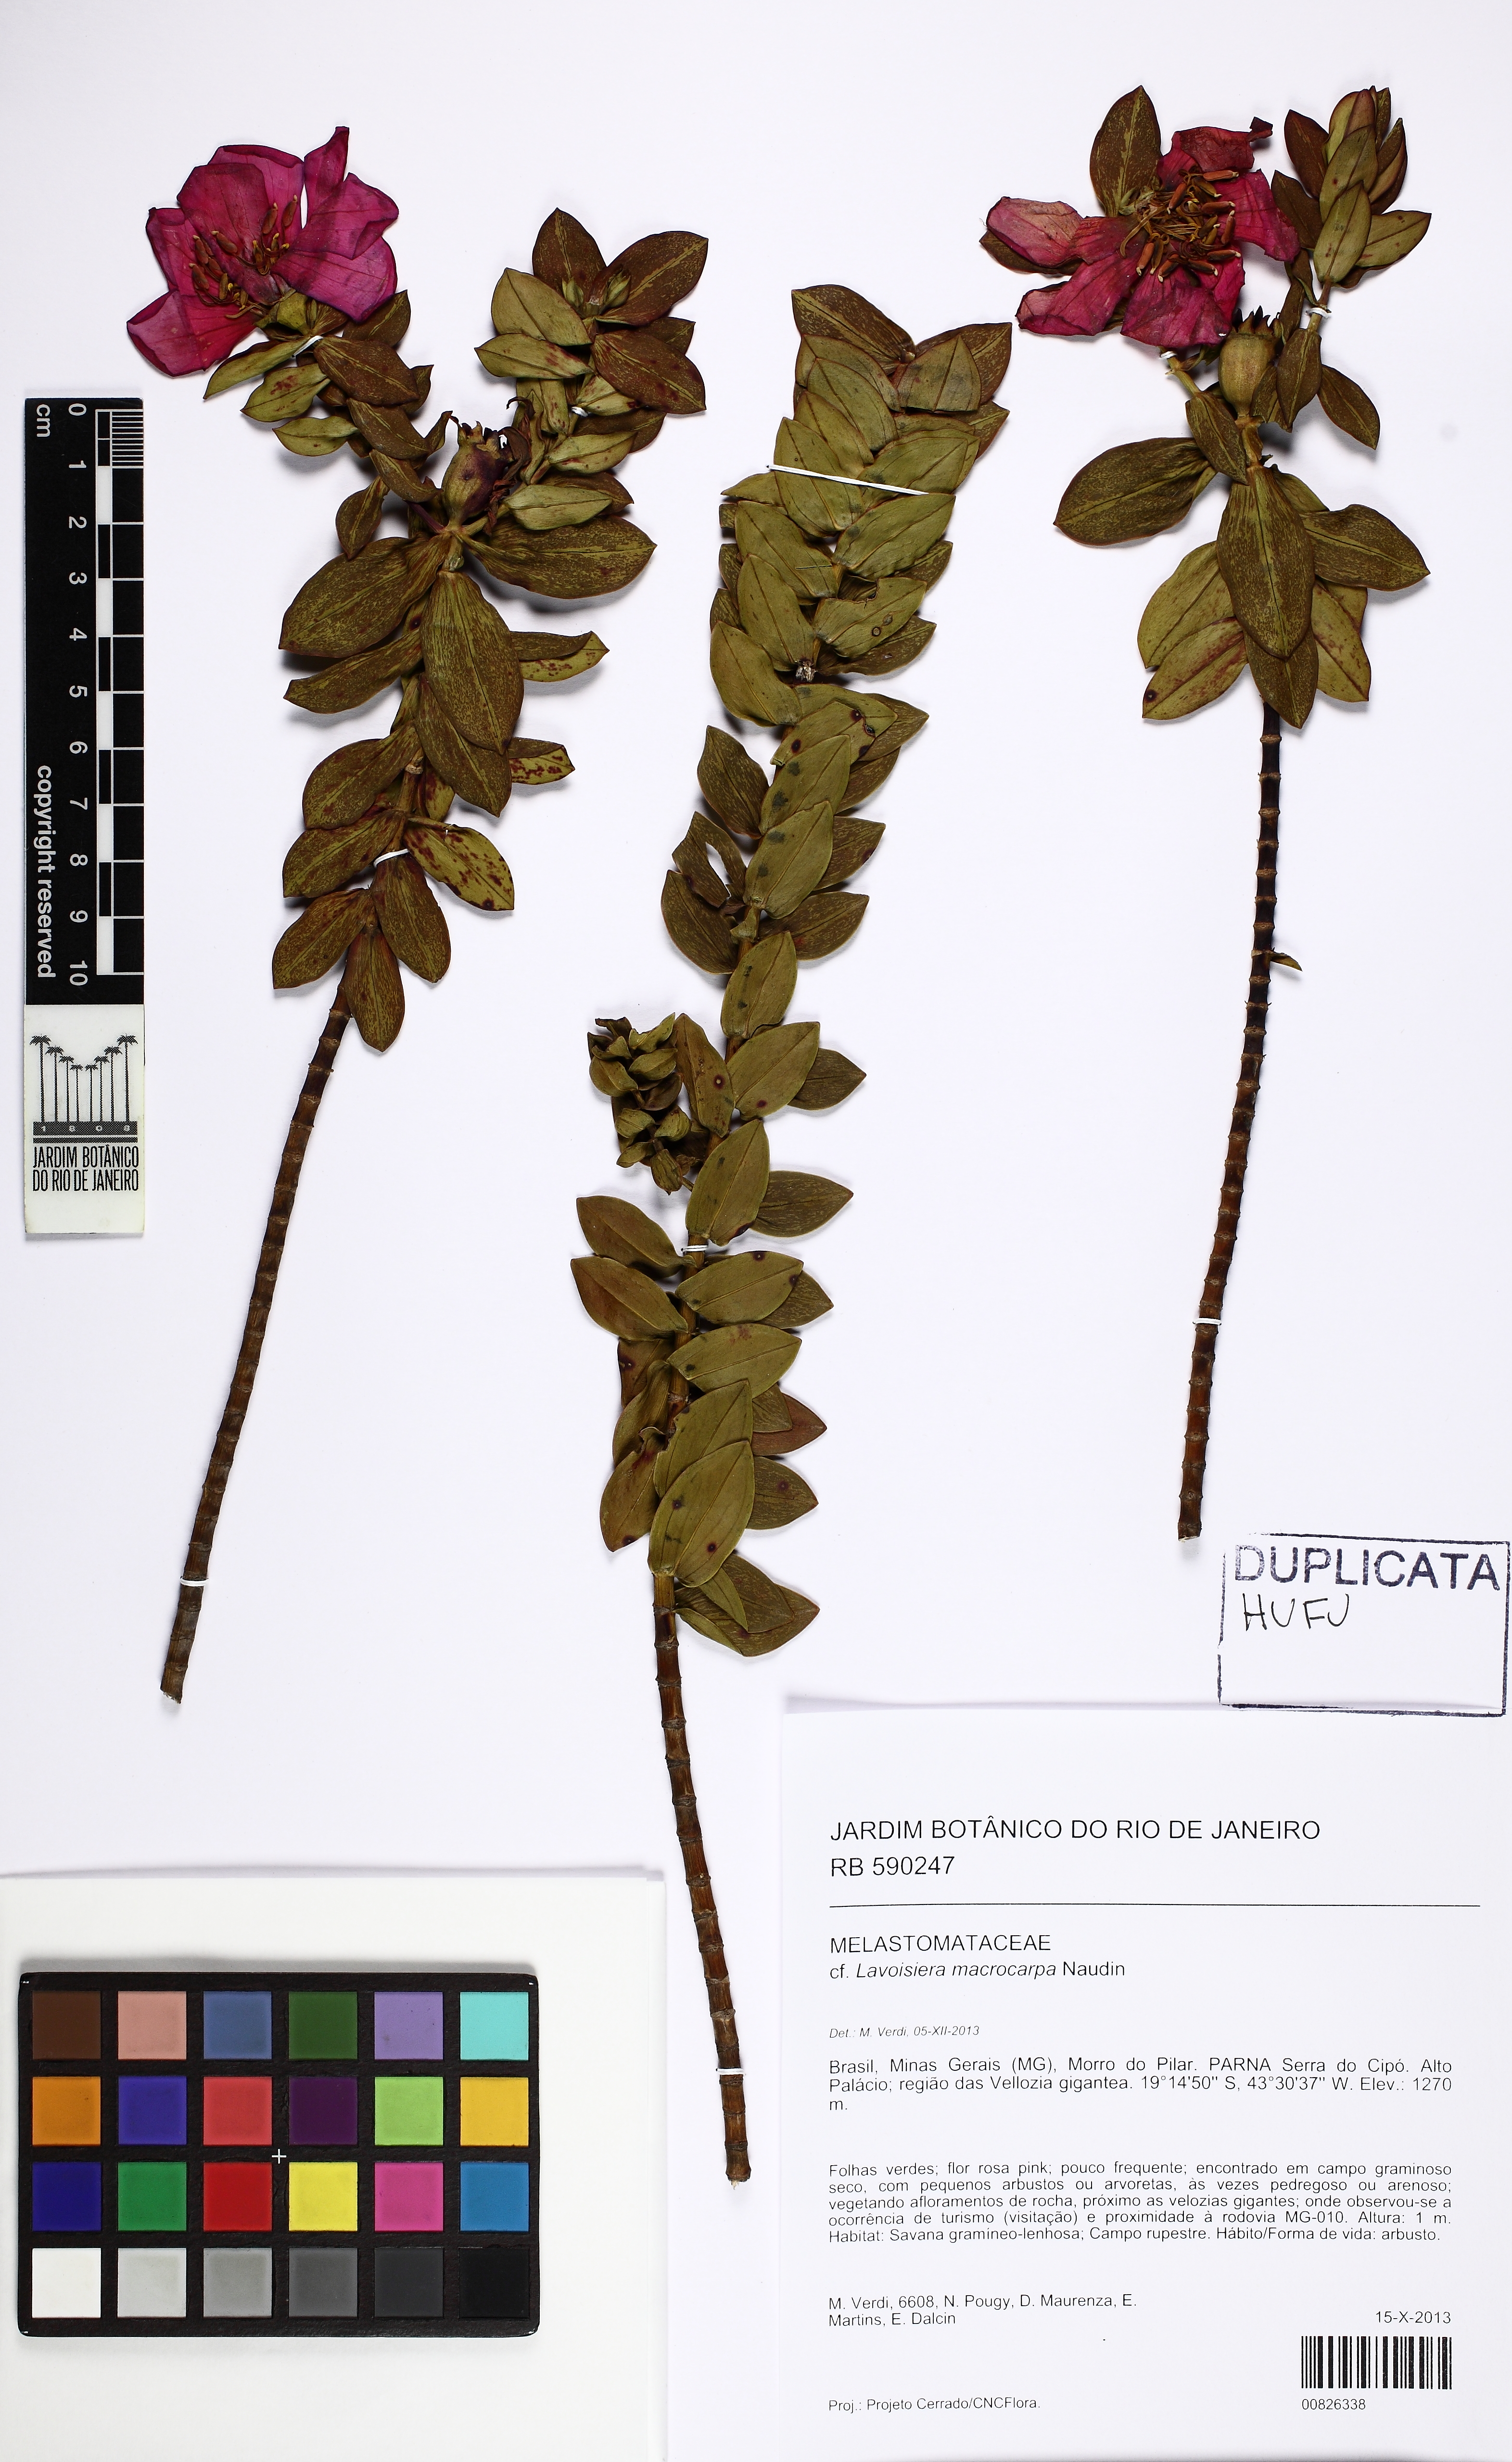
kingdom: Plantae
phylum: Tracheophyta
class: Magnoliopsida
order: Myrtales
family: Melastomataceae
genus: Microlicia
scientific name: Microlicia macrocarpa
